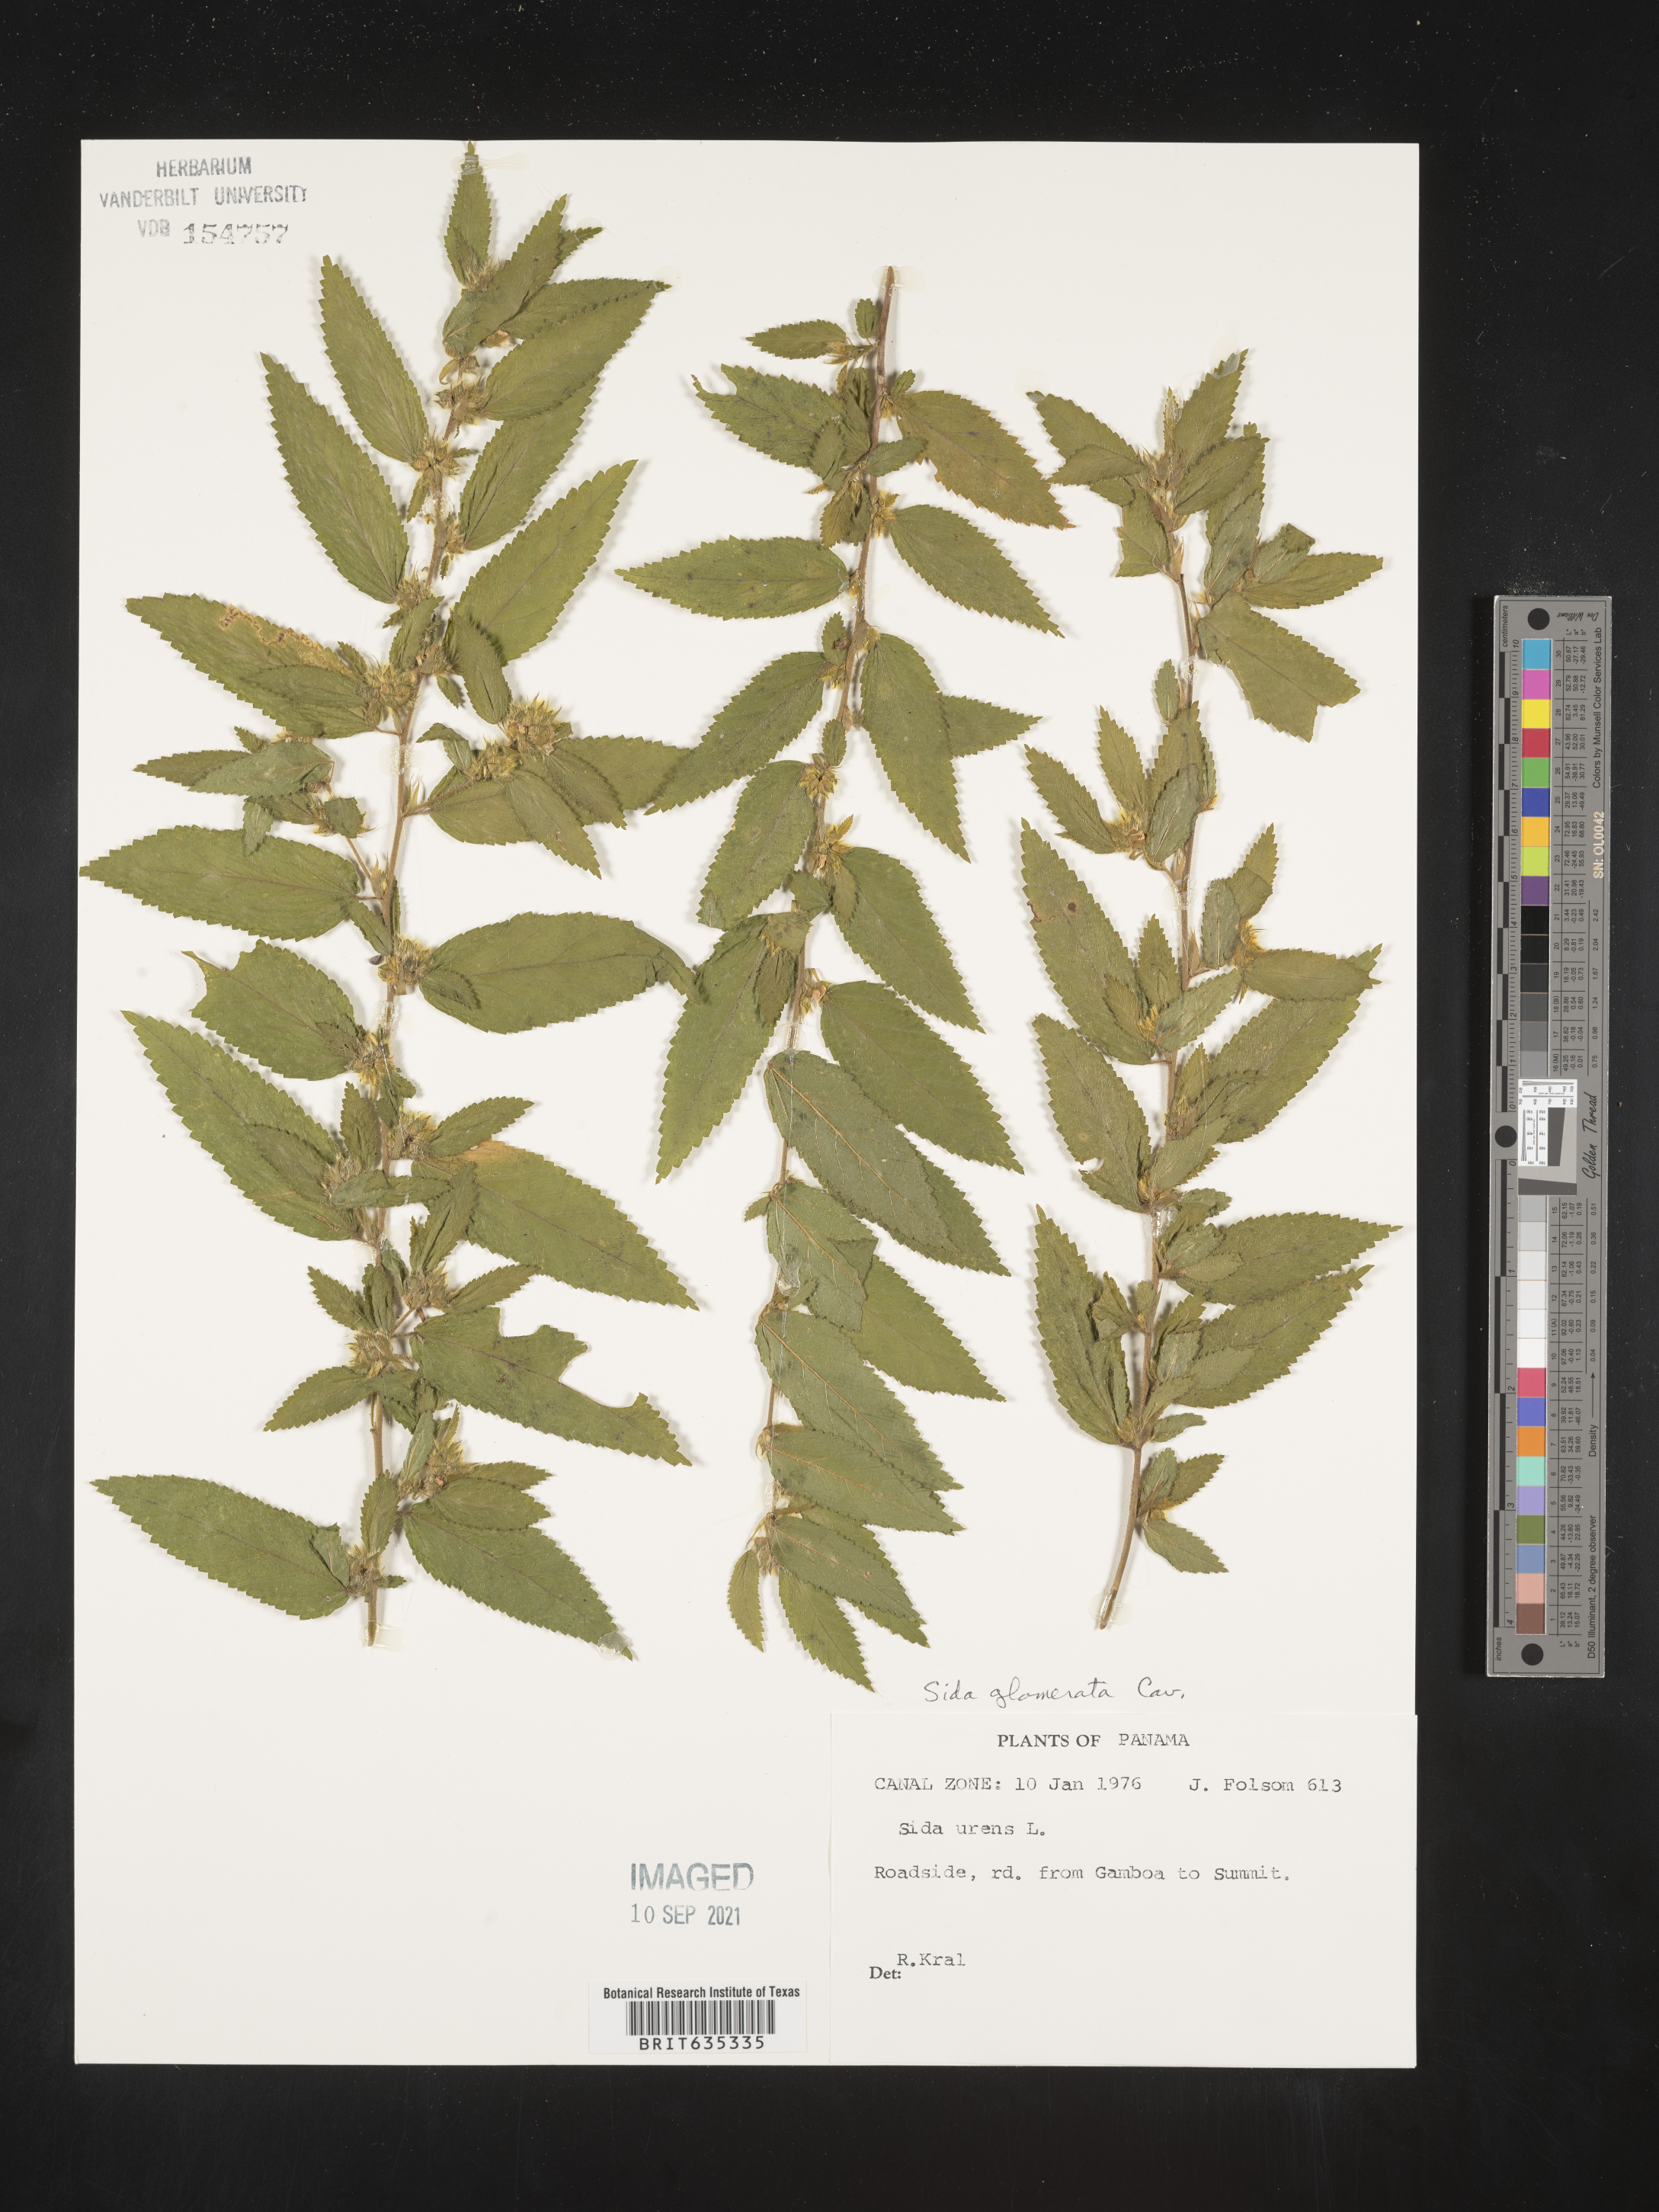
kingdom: Plantae
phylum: Tracheophyta
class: Magnoliopsida
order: Malvales
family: Malvaceae
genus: Sida
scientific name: Sida
